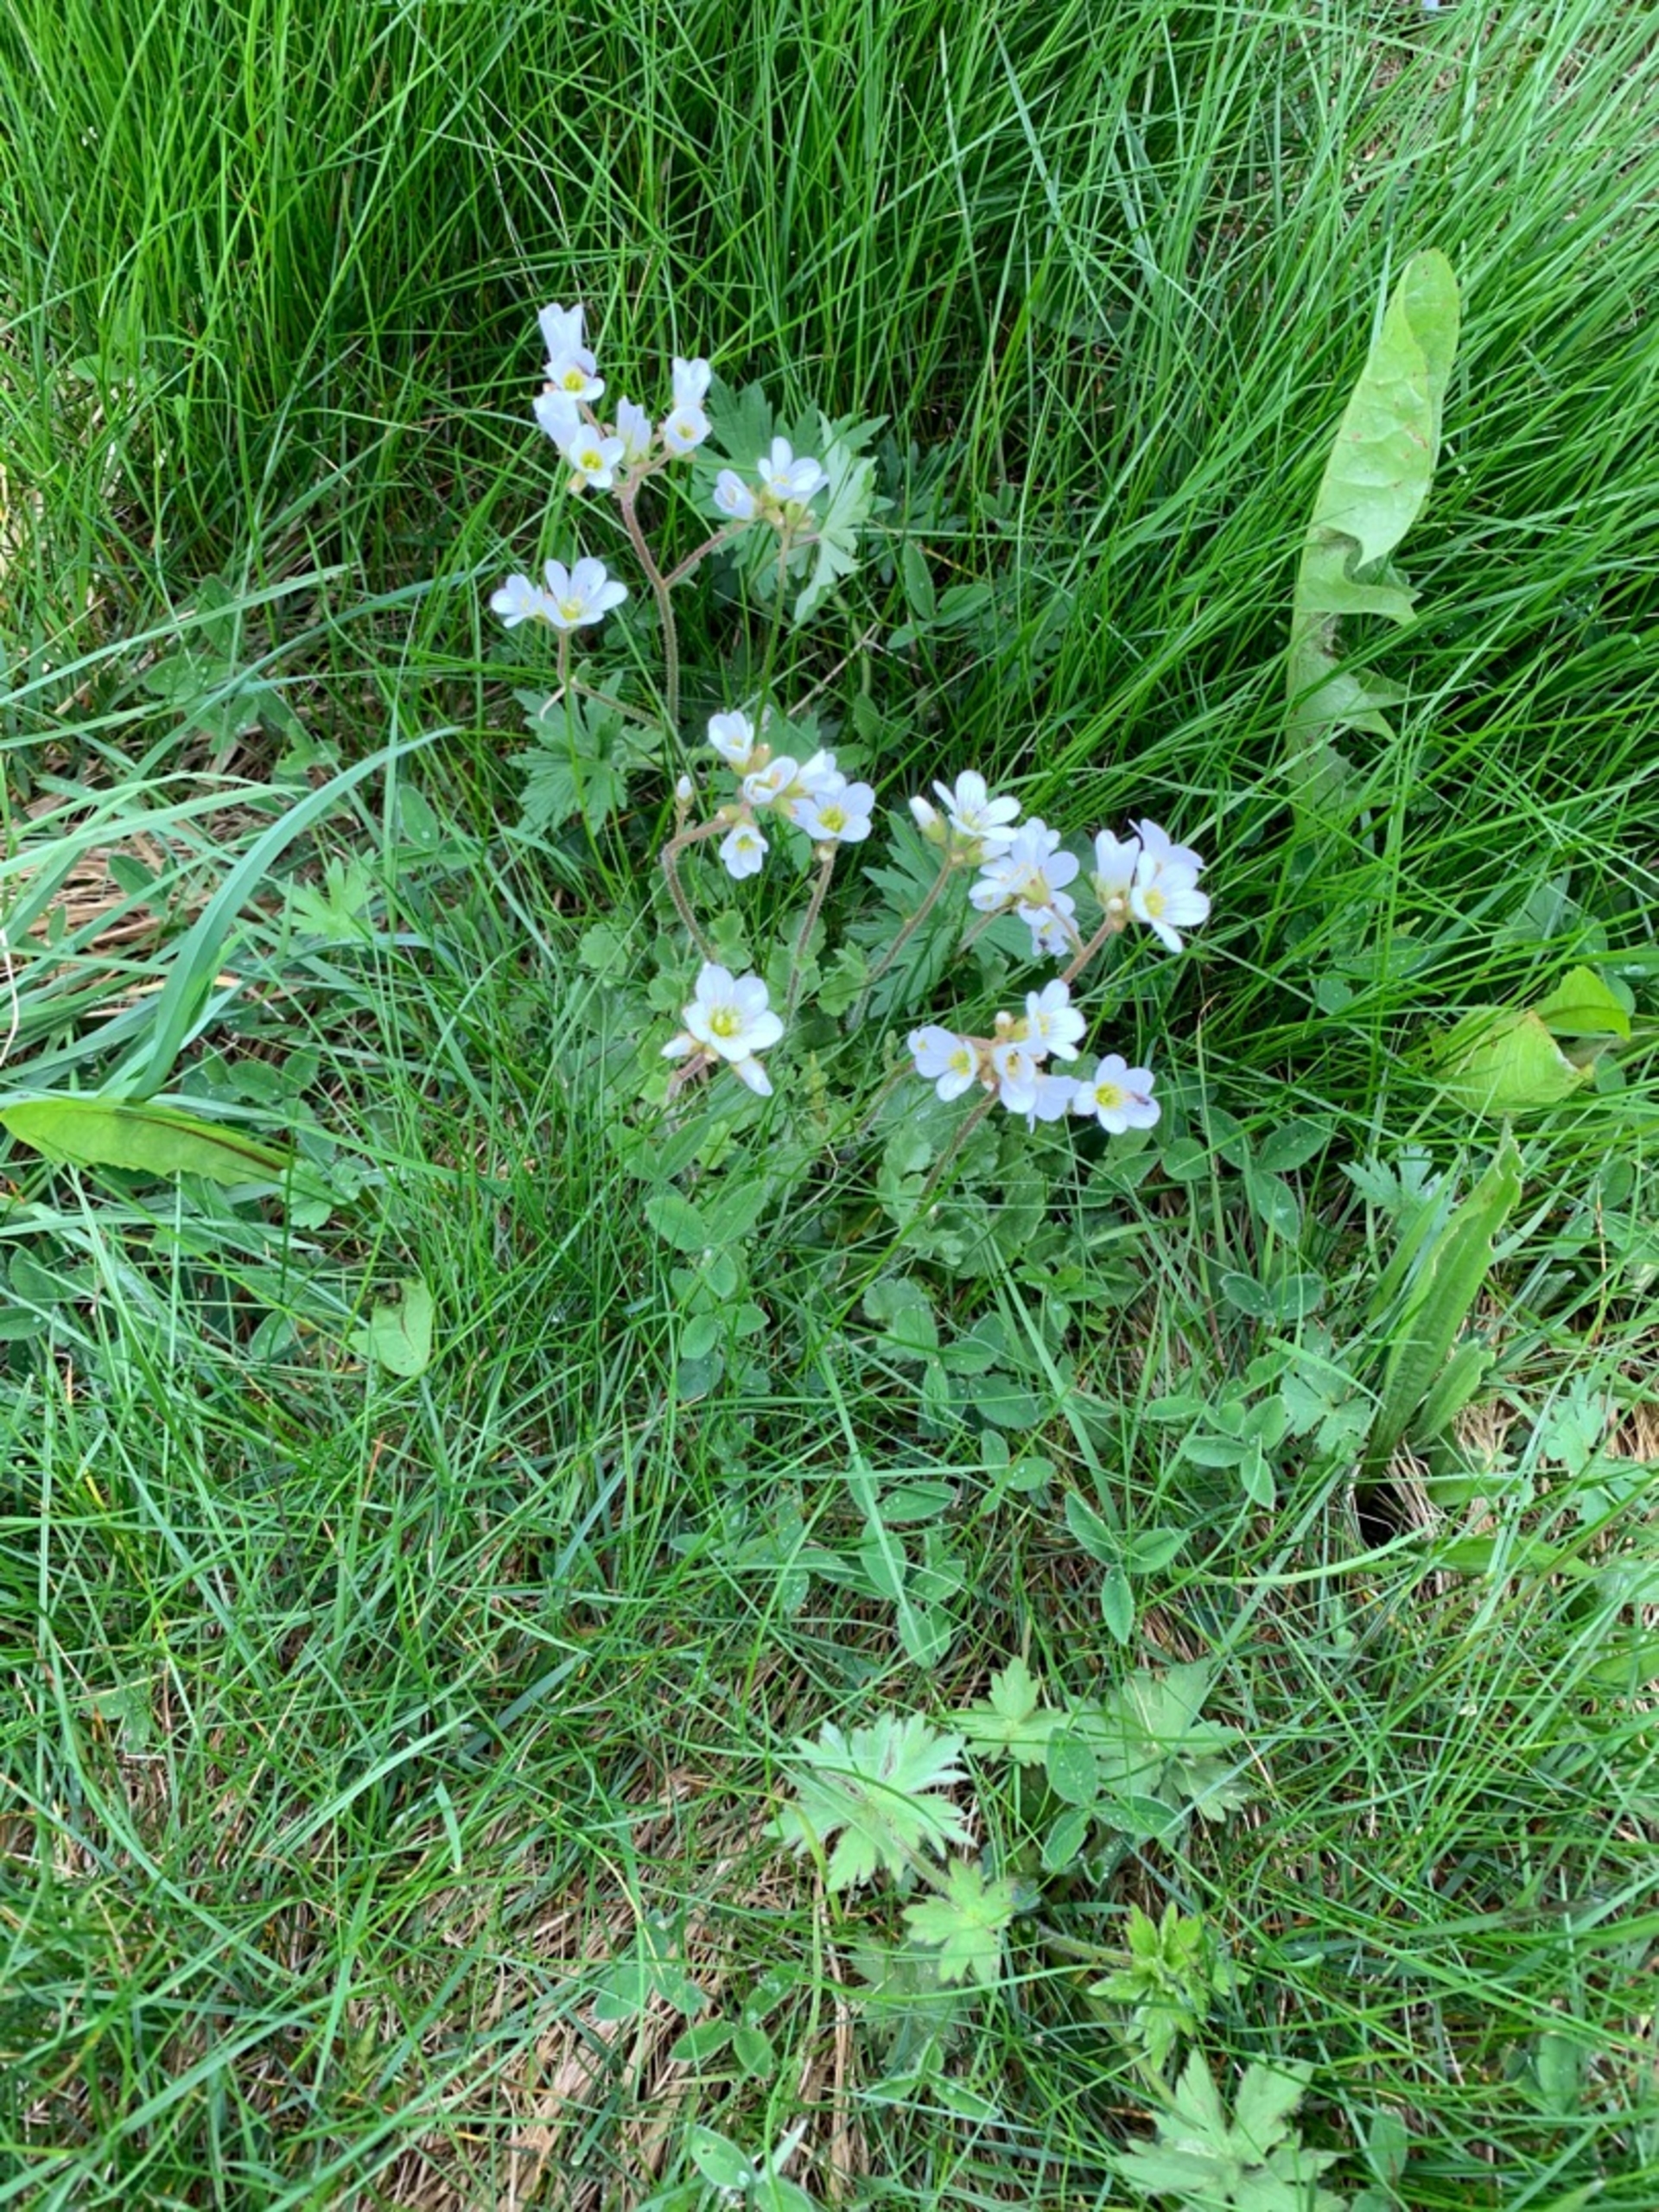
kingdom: Plantae
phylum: Tracheophyta
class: Magnoliopsida
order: Saxifragales
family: Saxifragaceae
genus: Saxifraga
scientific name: Saxifraga granulata
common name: Kornet stenbræk
